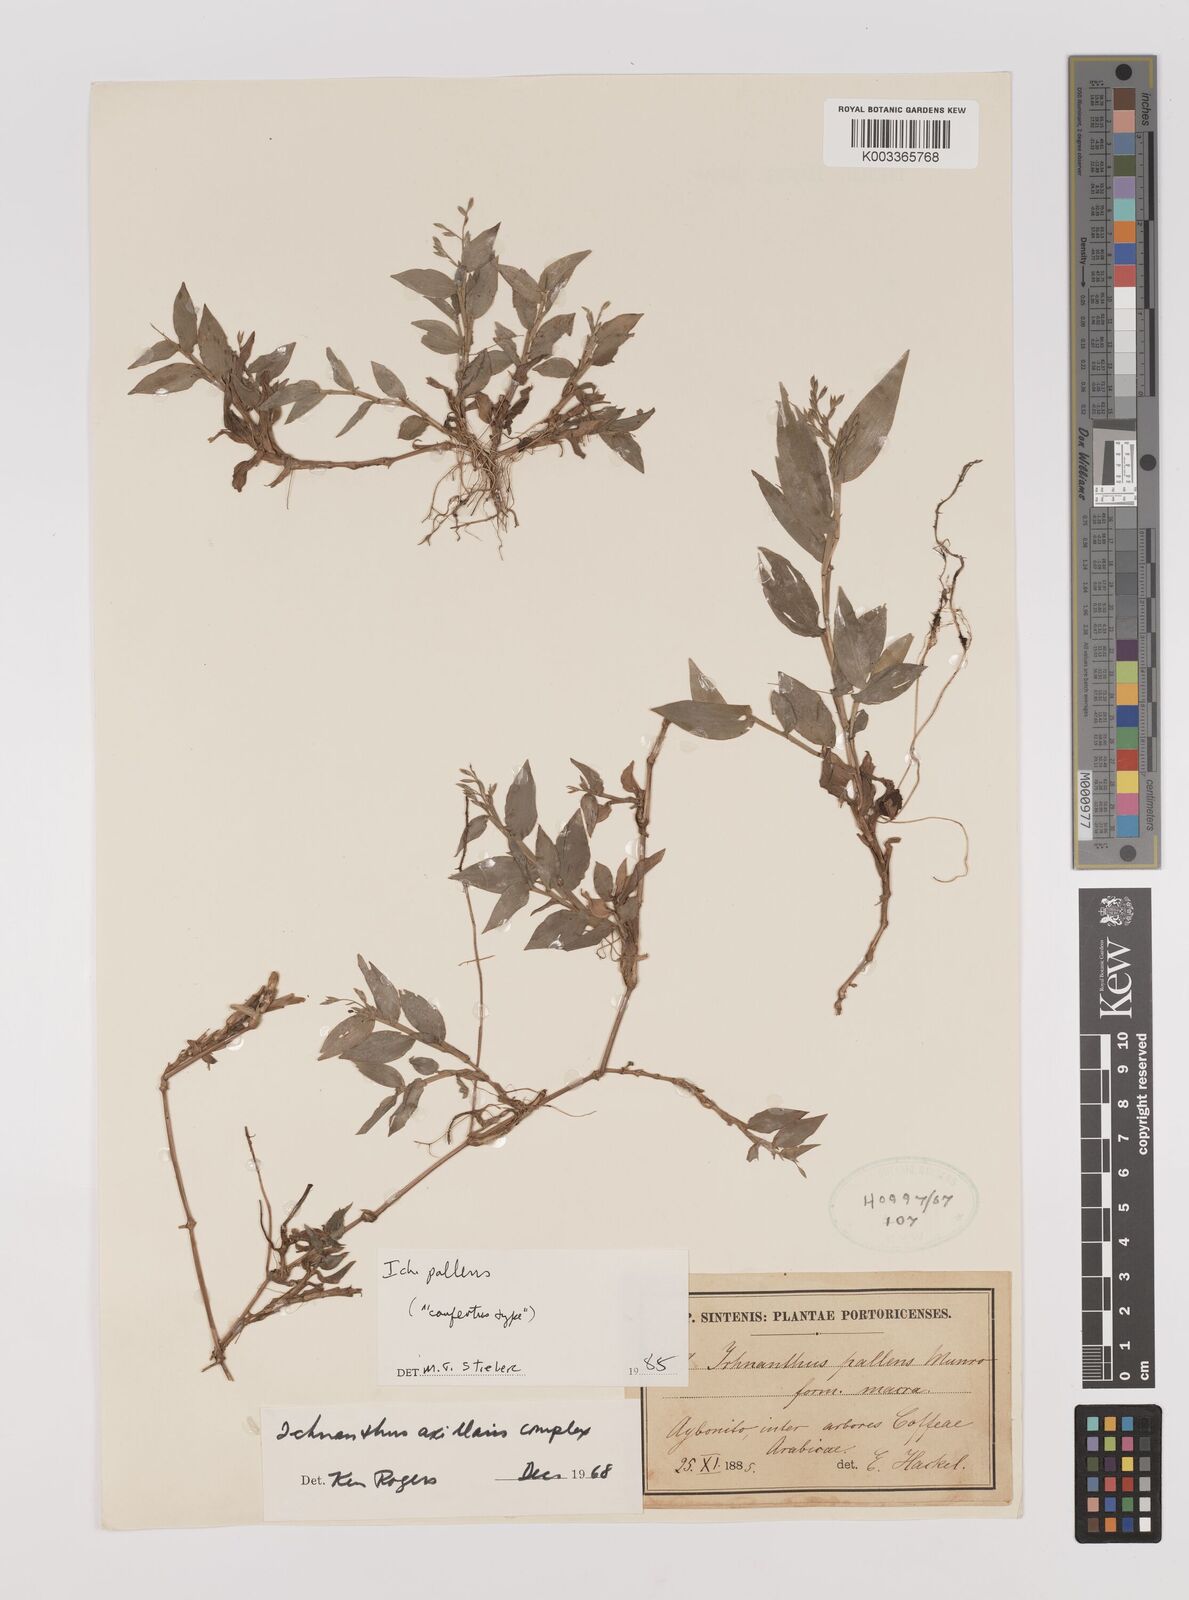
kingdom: Plantae
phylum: Tracheophyta
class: Liliopsida
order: Poales
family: Poaceae
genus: Ichnanthus
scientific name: Ichnanthus pallens
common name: Water grass
